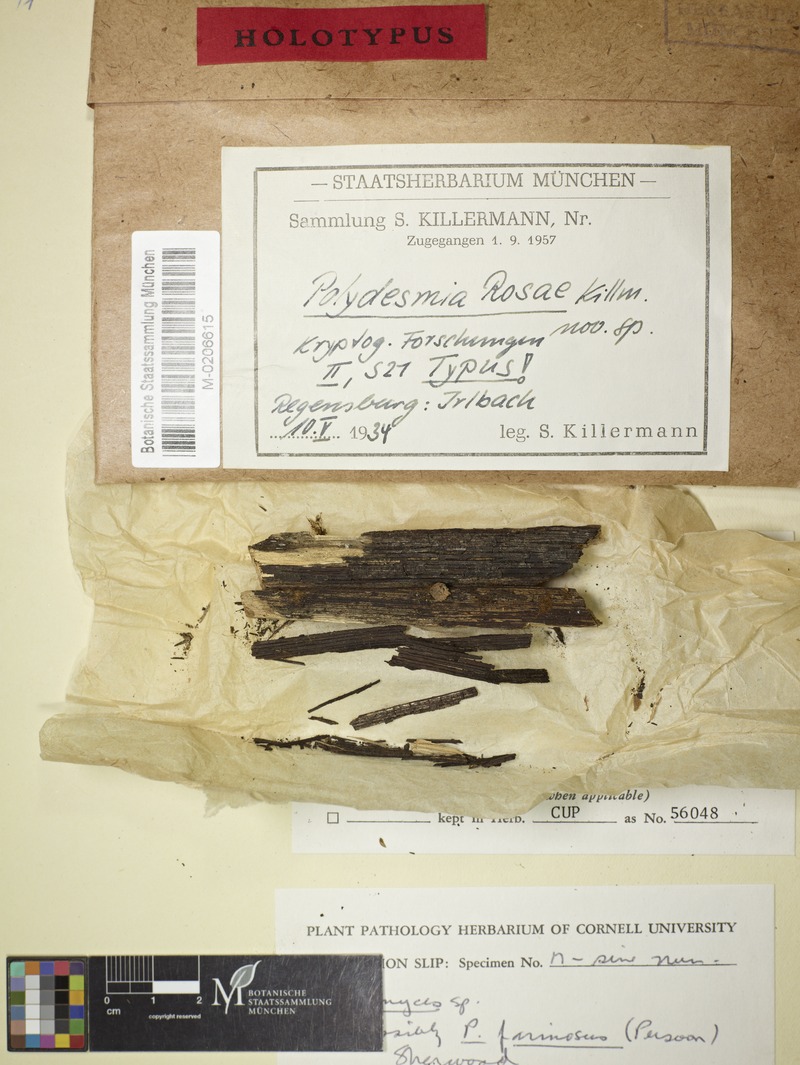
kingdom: Fungi
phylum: Ascomycota
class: Leotiomycetes
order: Chaetomellales
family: Marthamycetaceae
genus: Propolis
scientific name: Propolis farinosa
